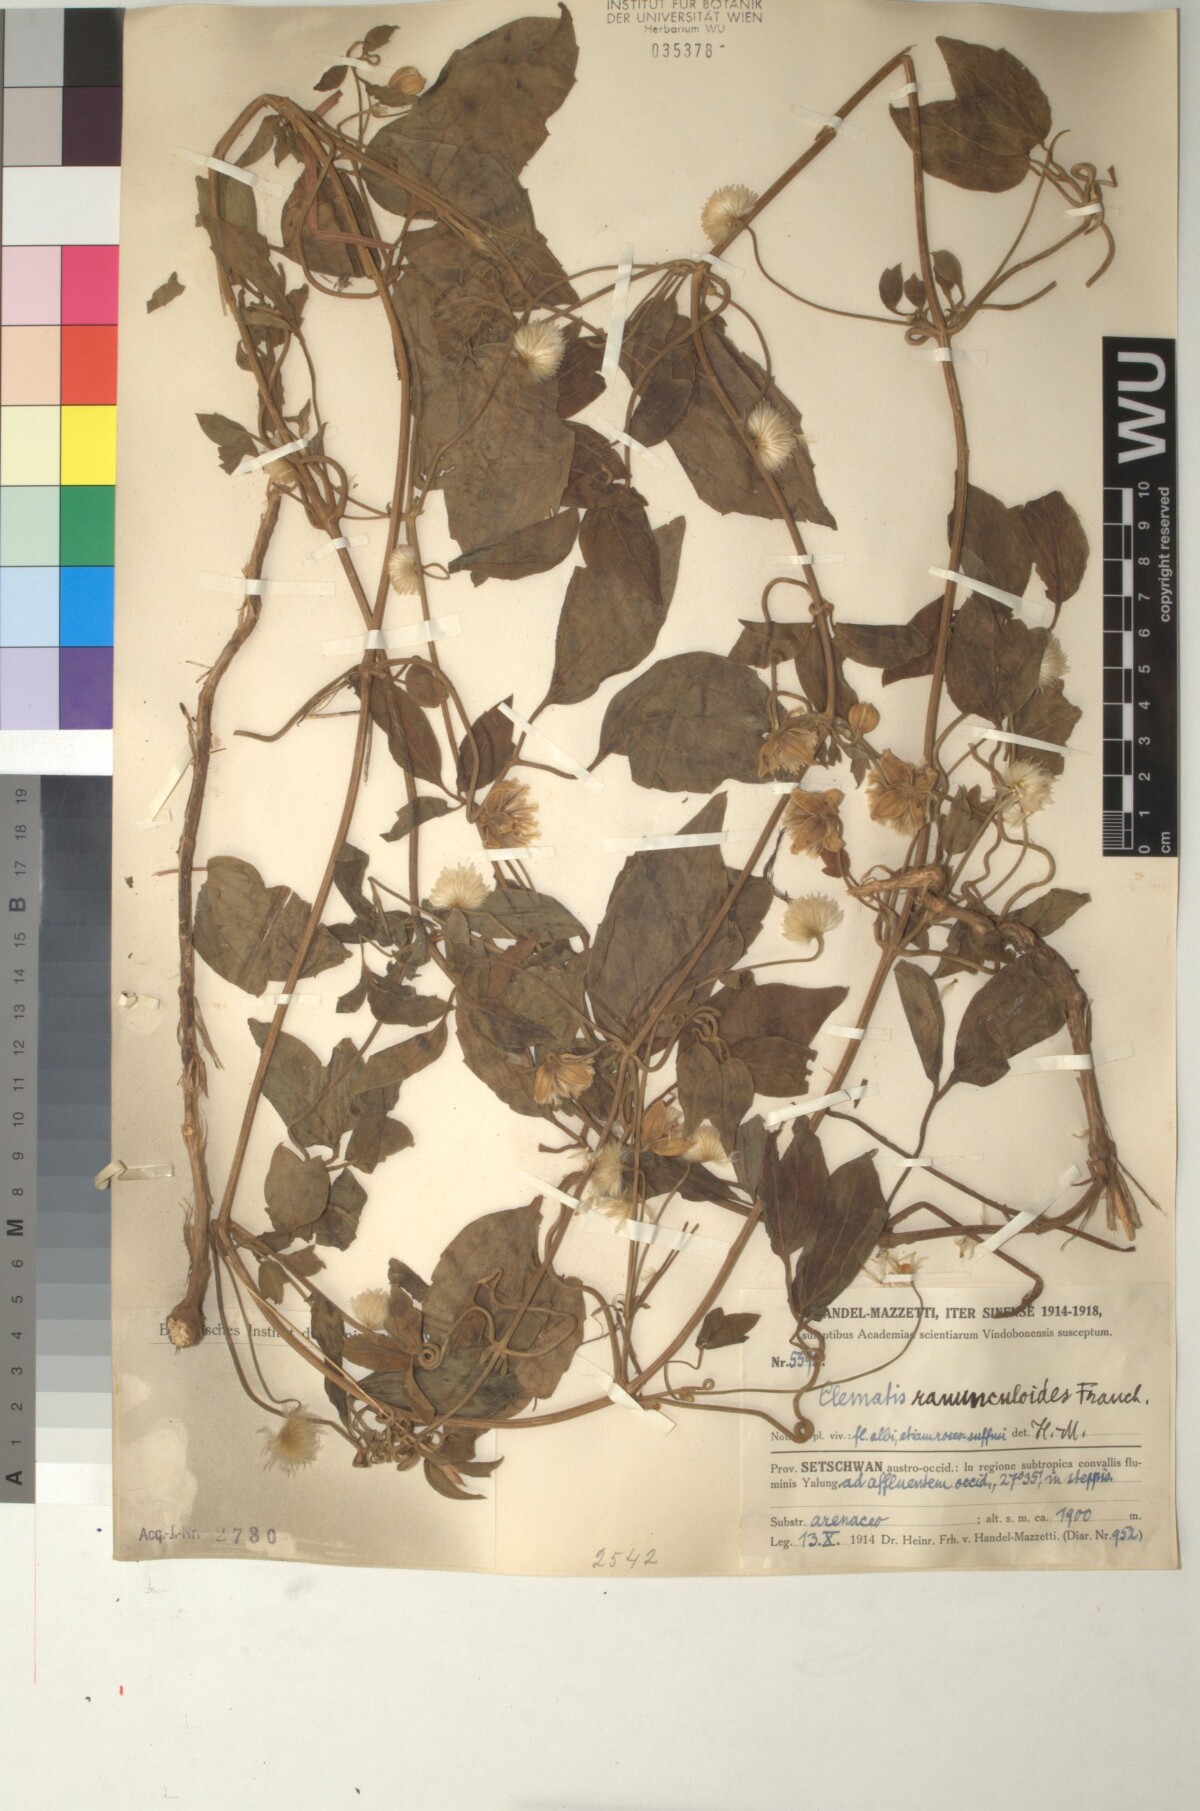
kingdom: Plantae
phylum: Tracheophyta
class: Magnoliopsida
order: Ranunculales
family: Ranunculaceae
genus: Clematis
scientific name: Clematis ranunculoides
